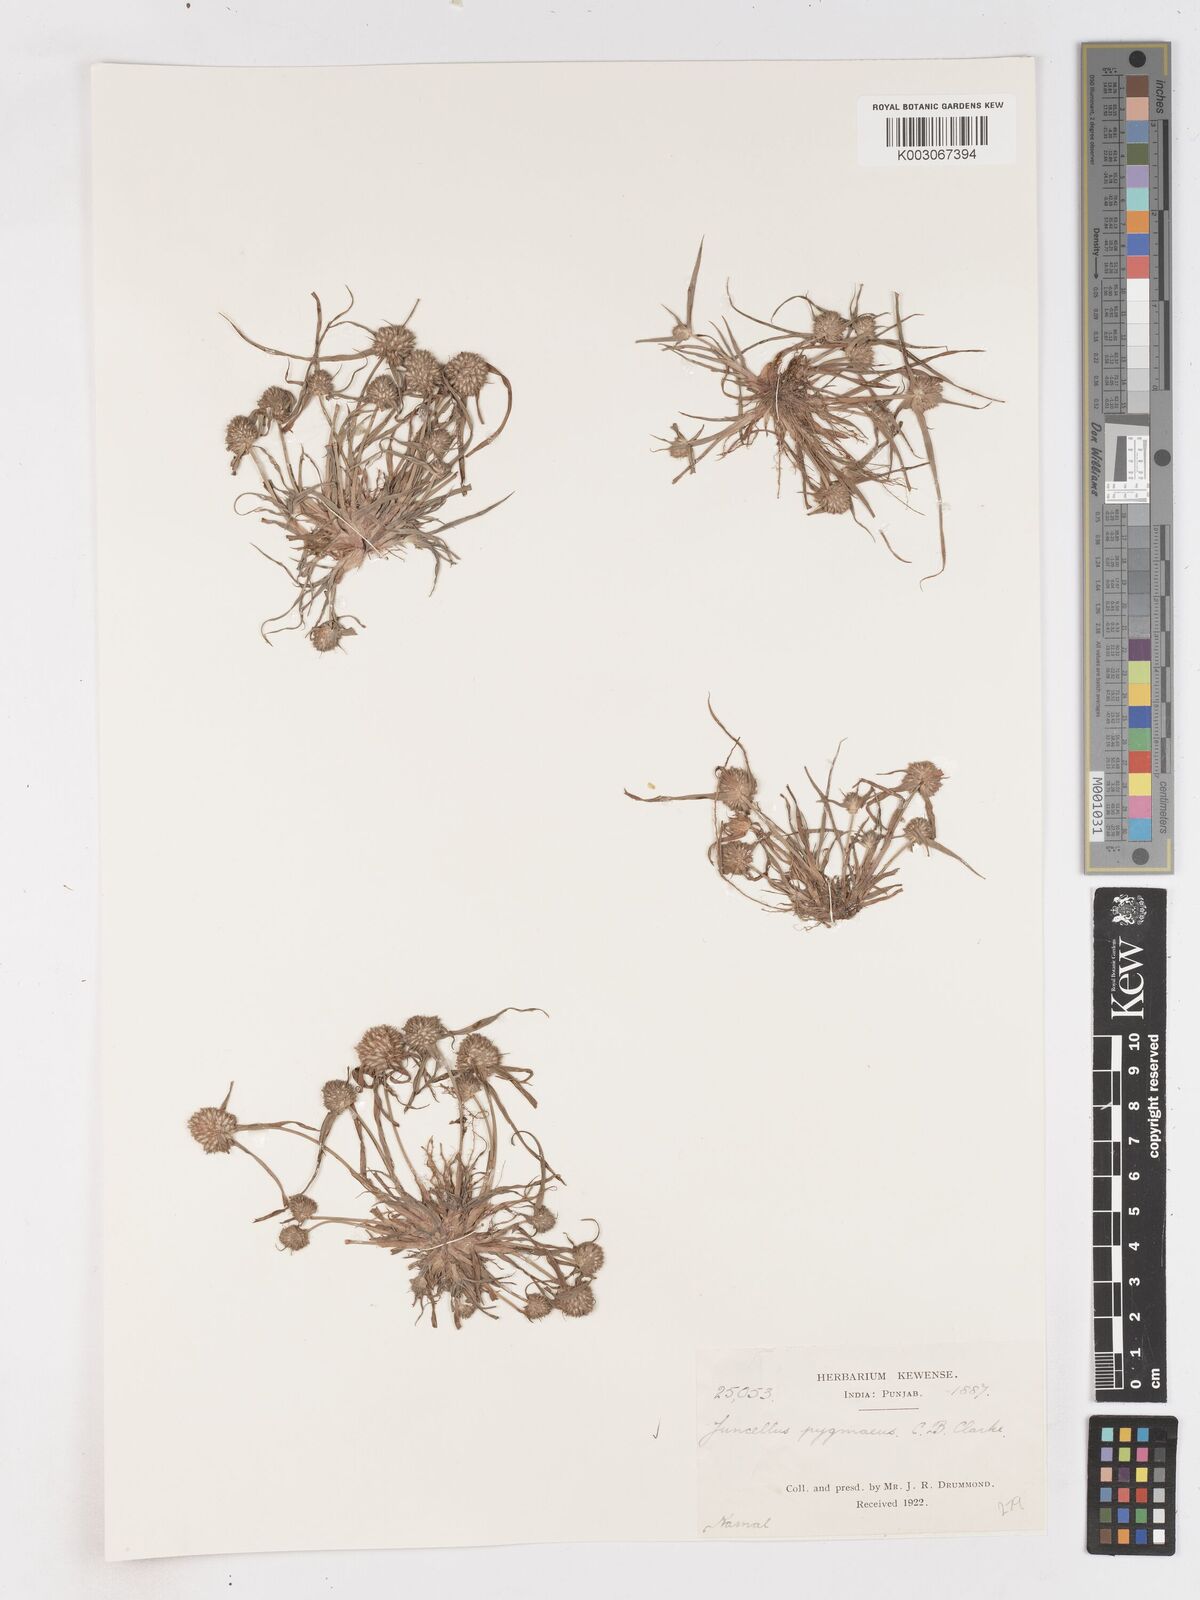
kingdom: Plantae
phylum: Tracheophyta
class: Liliopsida
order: Poales
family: Cyperaceae
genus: Cyperus
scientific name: Cyperus michelianus
